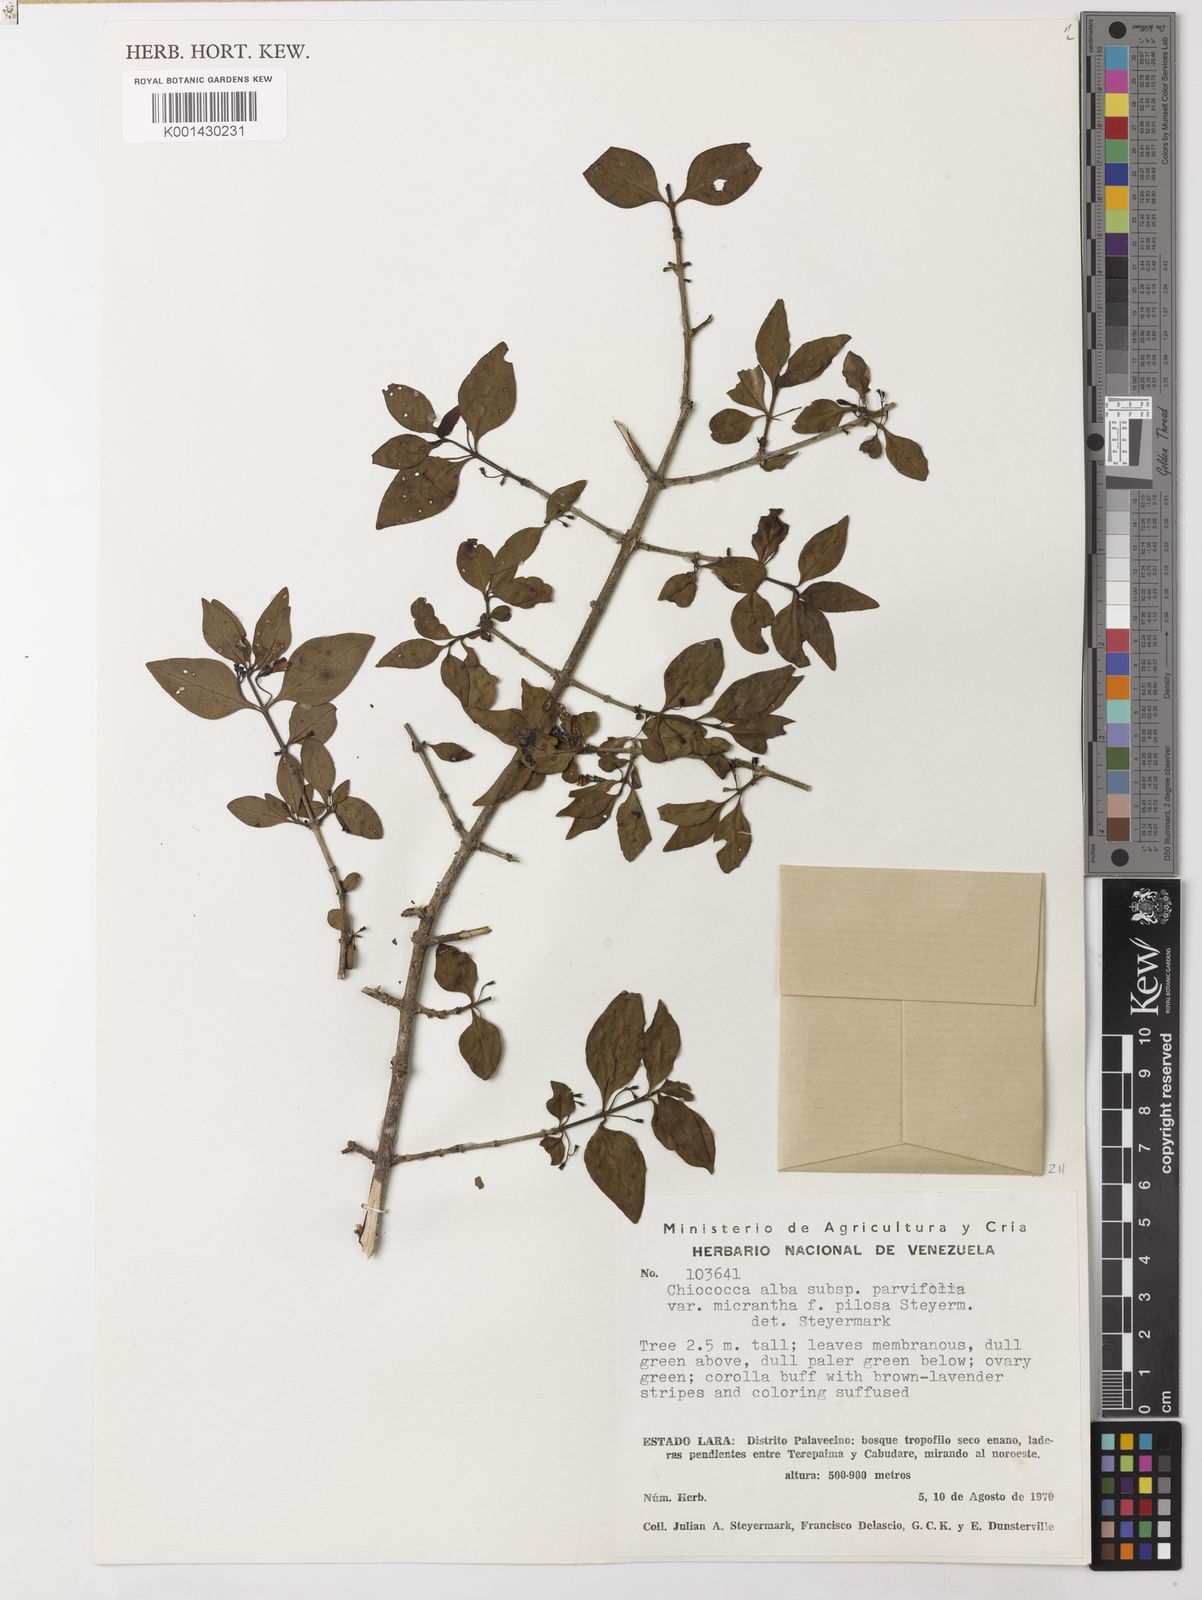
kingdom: Plantae
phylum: Tracheophyta
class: Magnoliopsida
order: Gentianales
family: Rubiaceae
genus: Chiococca
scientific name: Chiococca alba
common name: Snowberry
